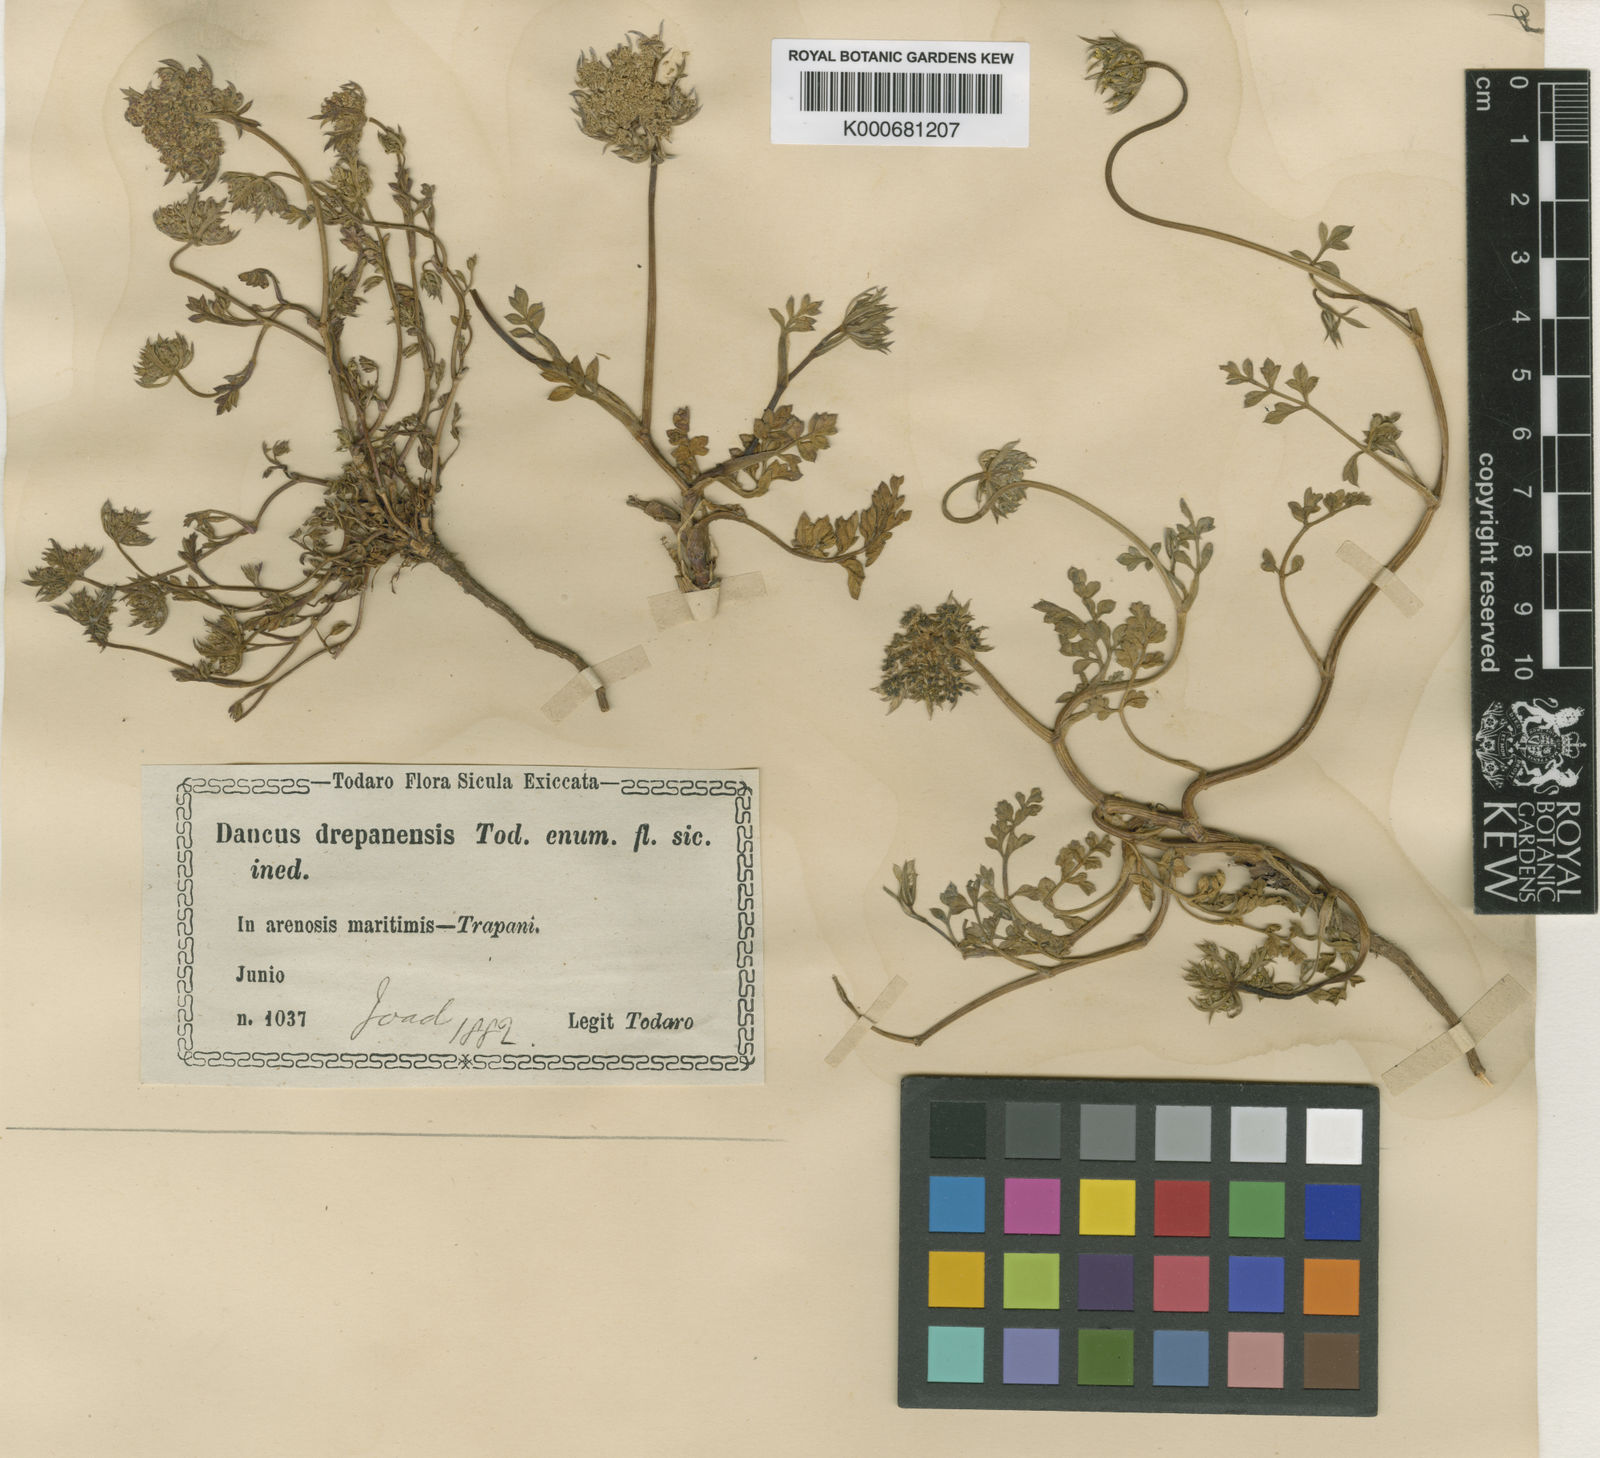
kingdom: Plantae
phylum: Tracheophyta
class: Magnoliopsida
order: Apiales
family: Apiaceae
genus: Daucus
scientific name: Daucus carota
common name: Wild carrot
